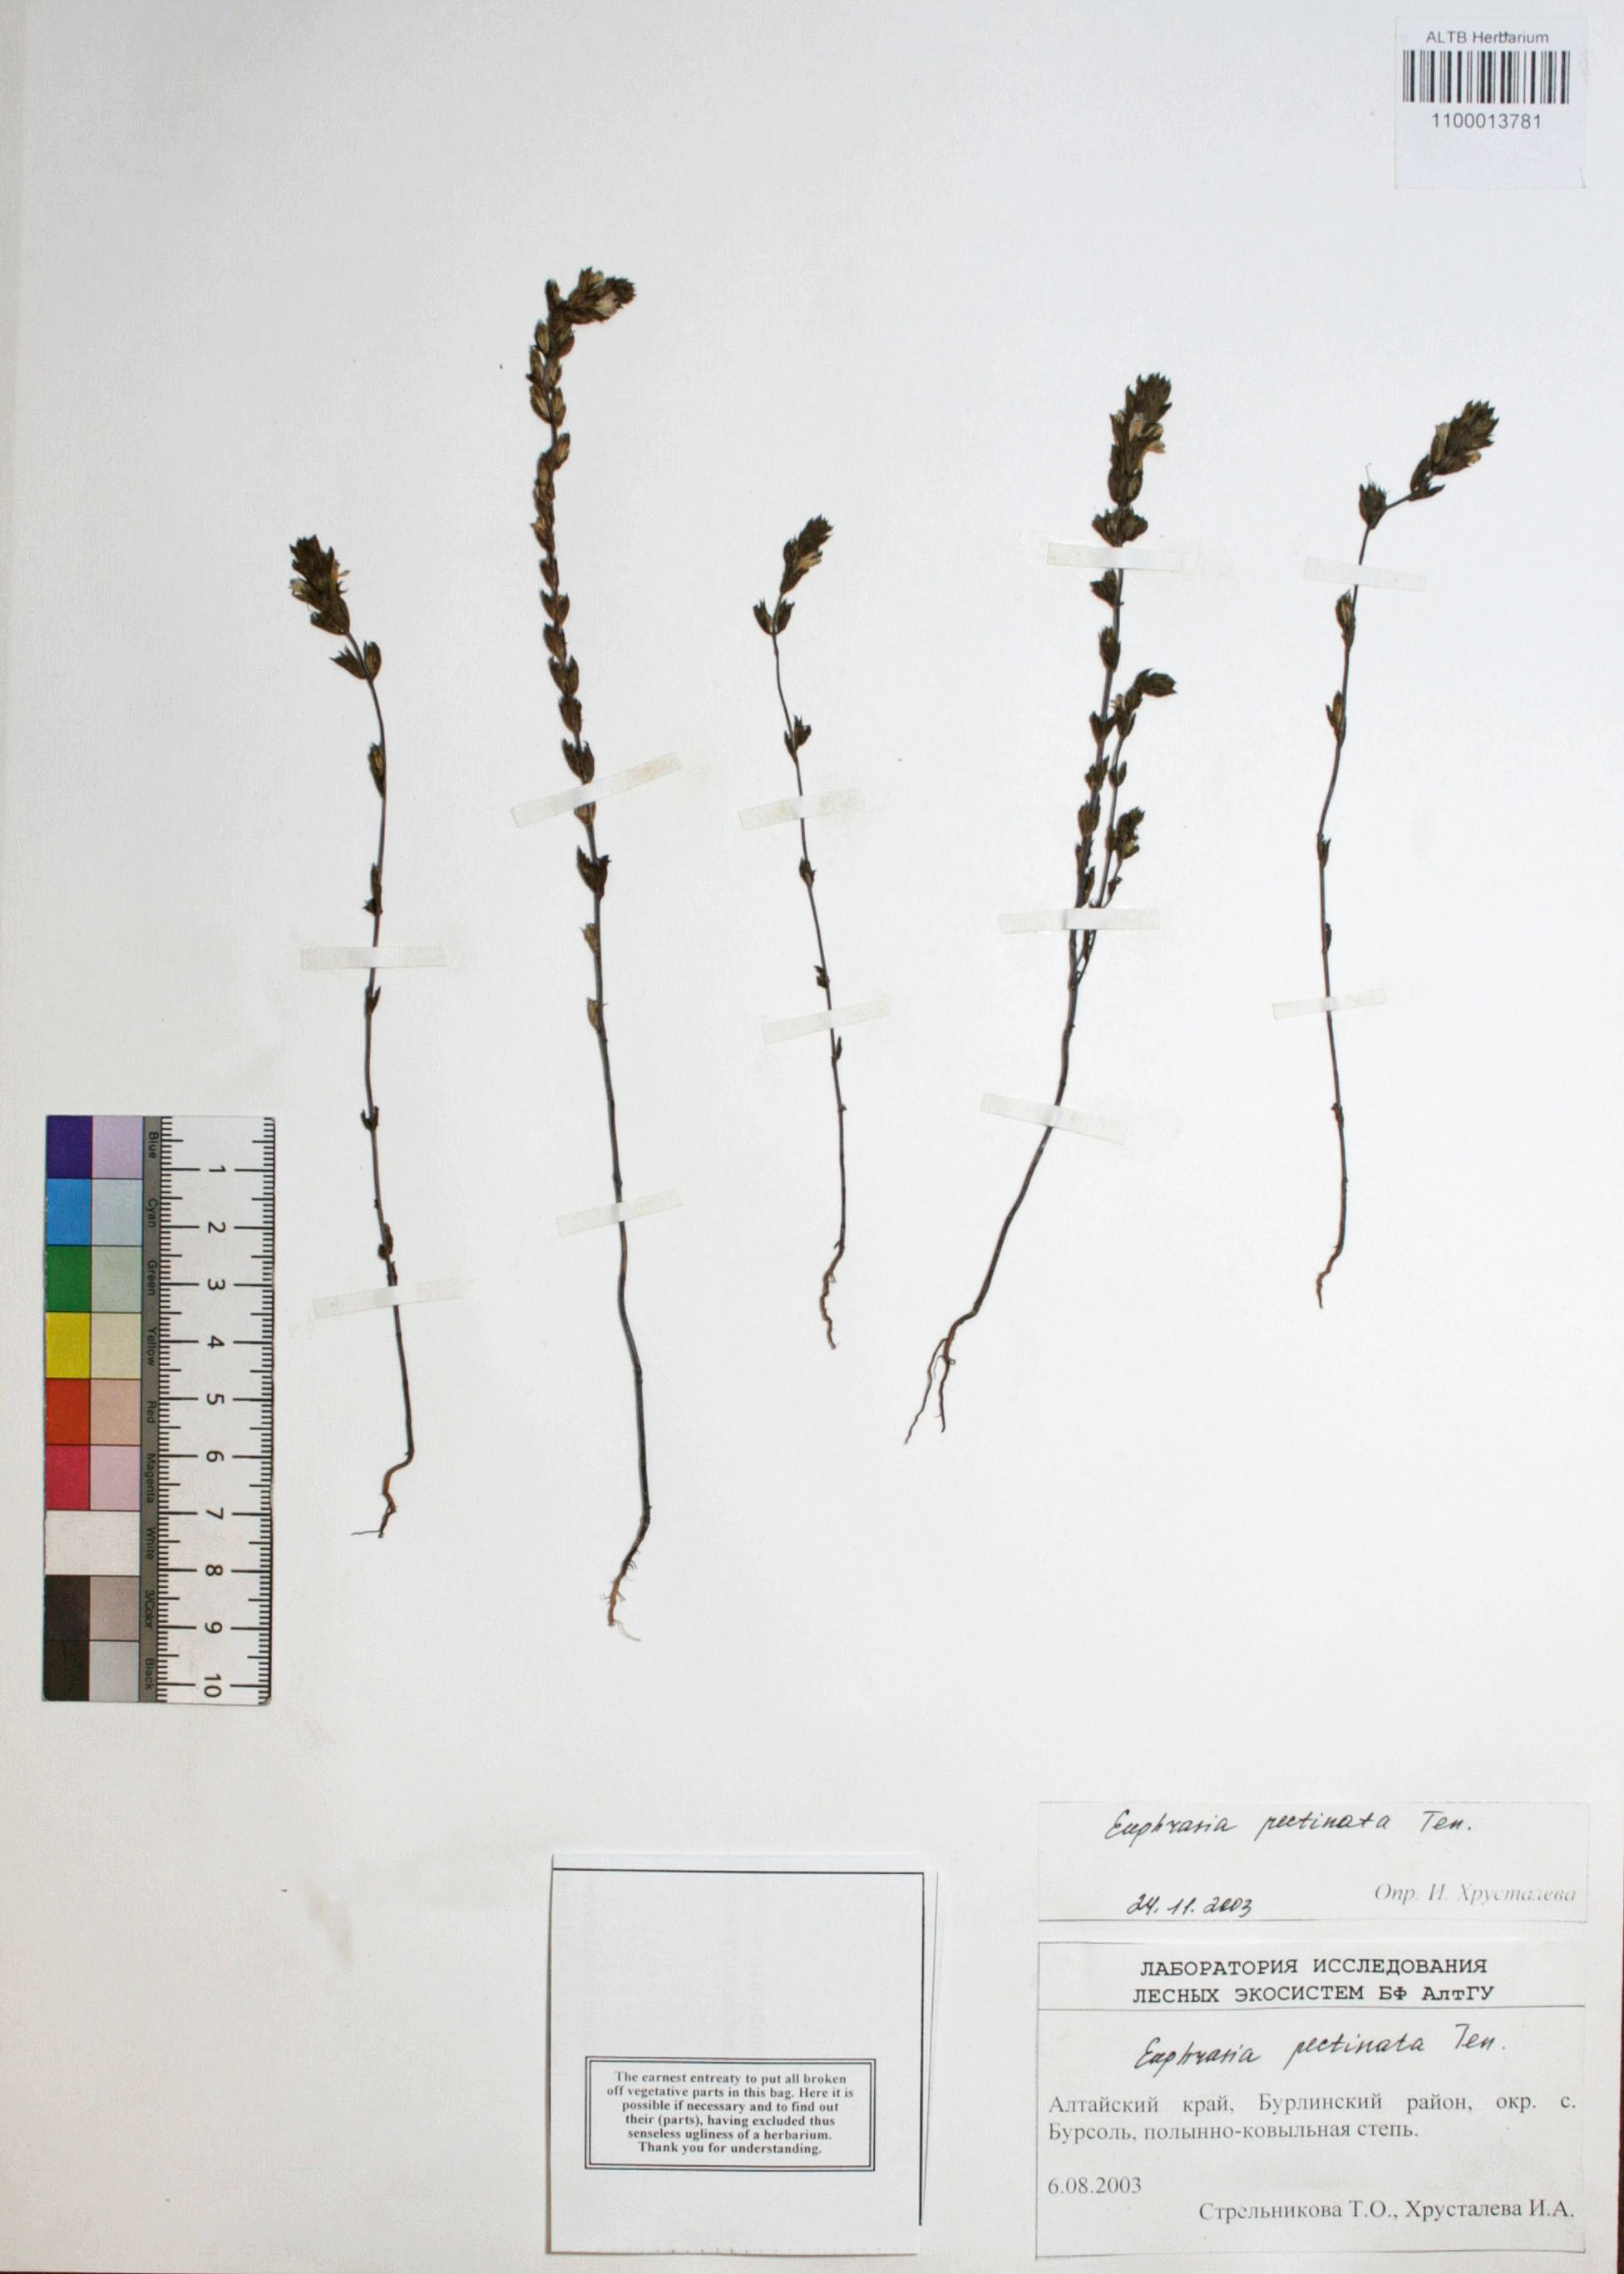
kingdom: Plantae
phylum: Tracheophyta
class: Magnoliopsida
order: Lamiales
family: Orobanchaceae
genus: Euphrasia
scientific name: Euphrasia pectinata
